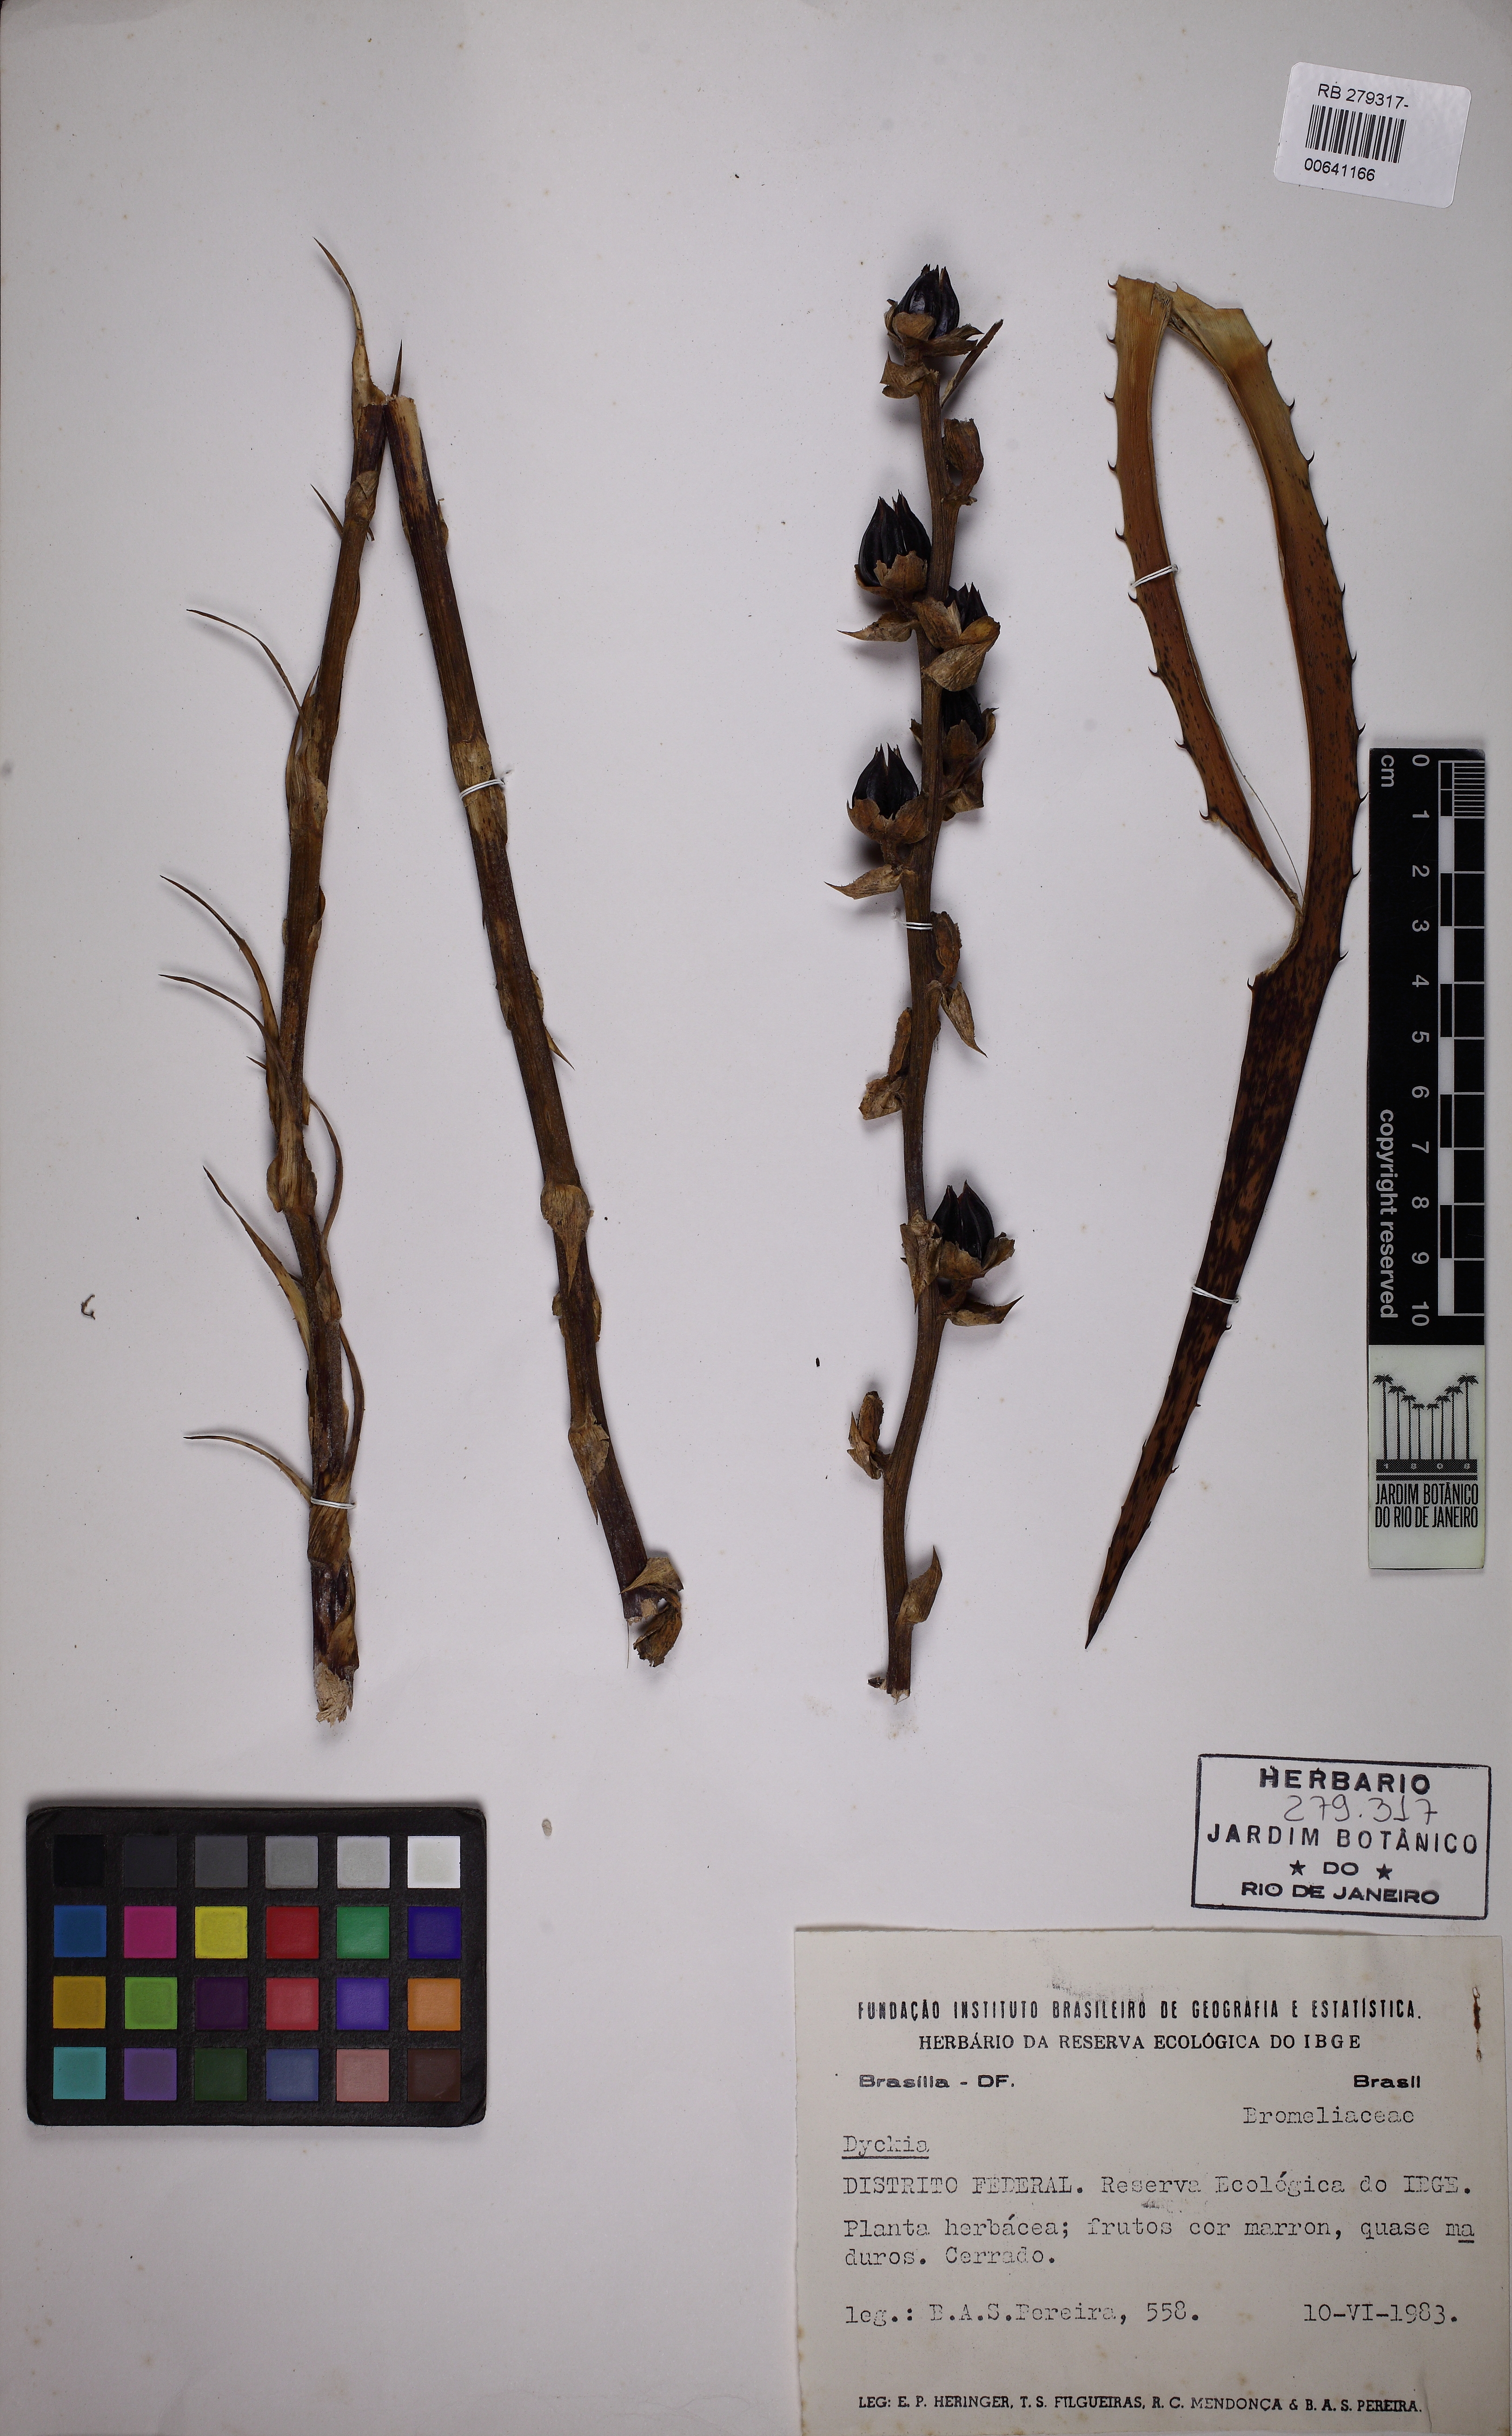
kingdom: Plantae
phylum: Tracheophyta
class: Liliopsida
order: Poales
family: Bromeliaceae
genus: Dyckia
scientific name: Dyckia weddelliana
